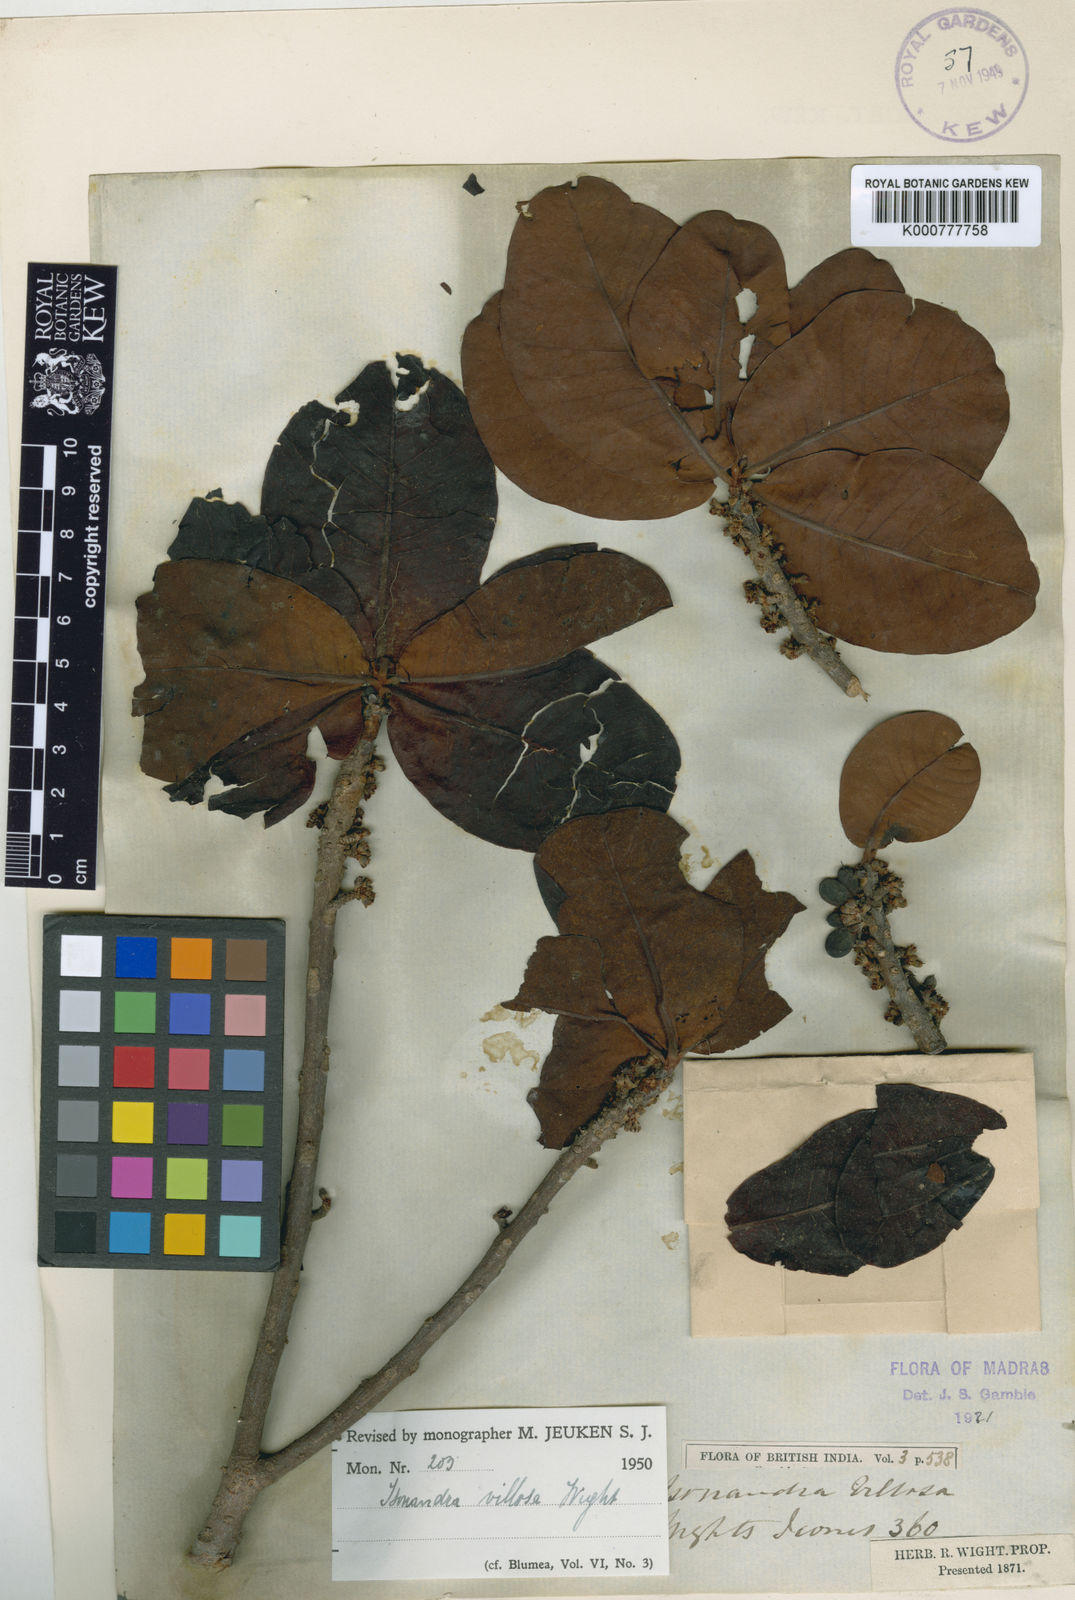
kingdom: Plantae
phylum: Tracheophyta
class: Magnoliopsida
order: Ericales
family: Sapotaceae
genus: Isonandra
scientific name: Isonandra villosa
